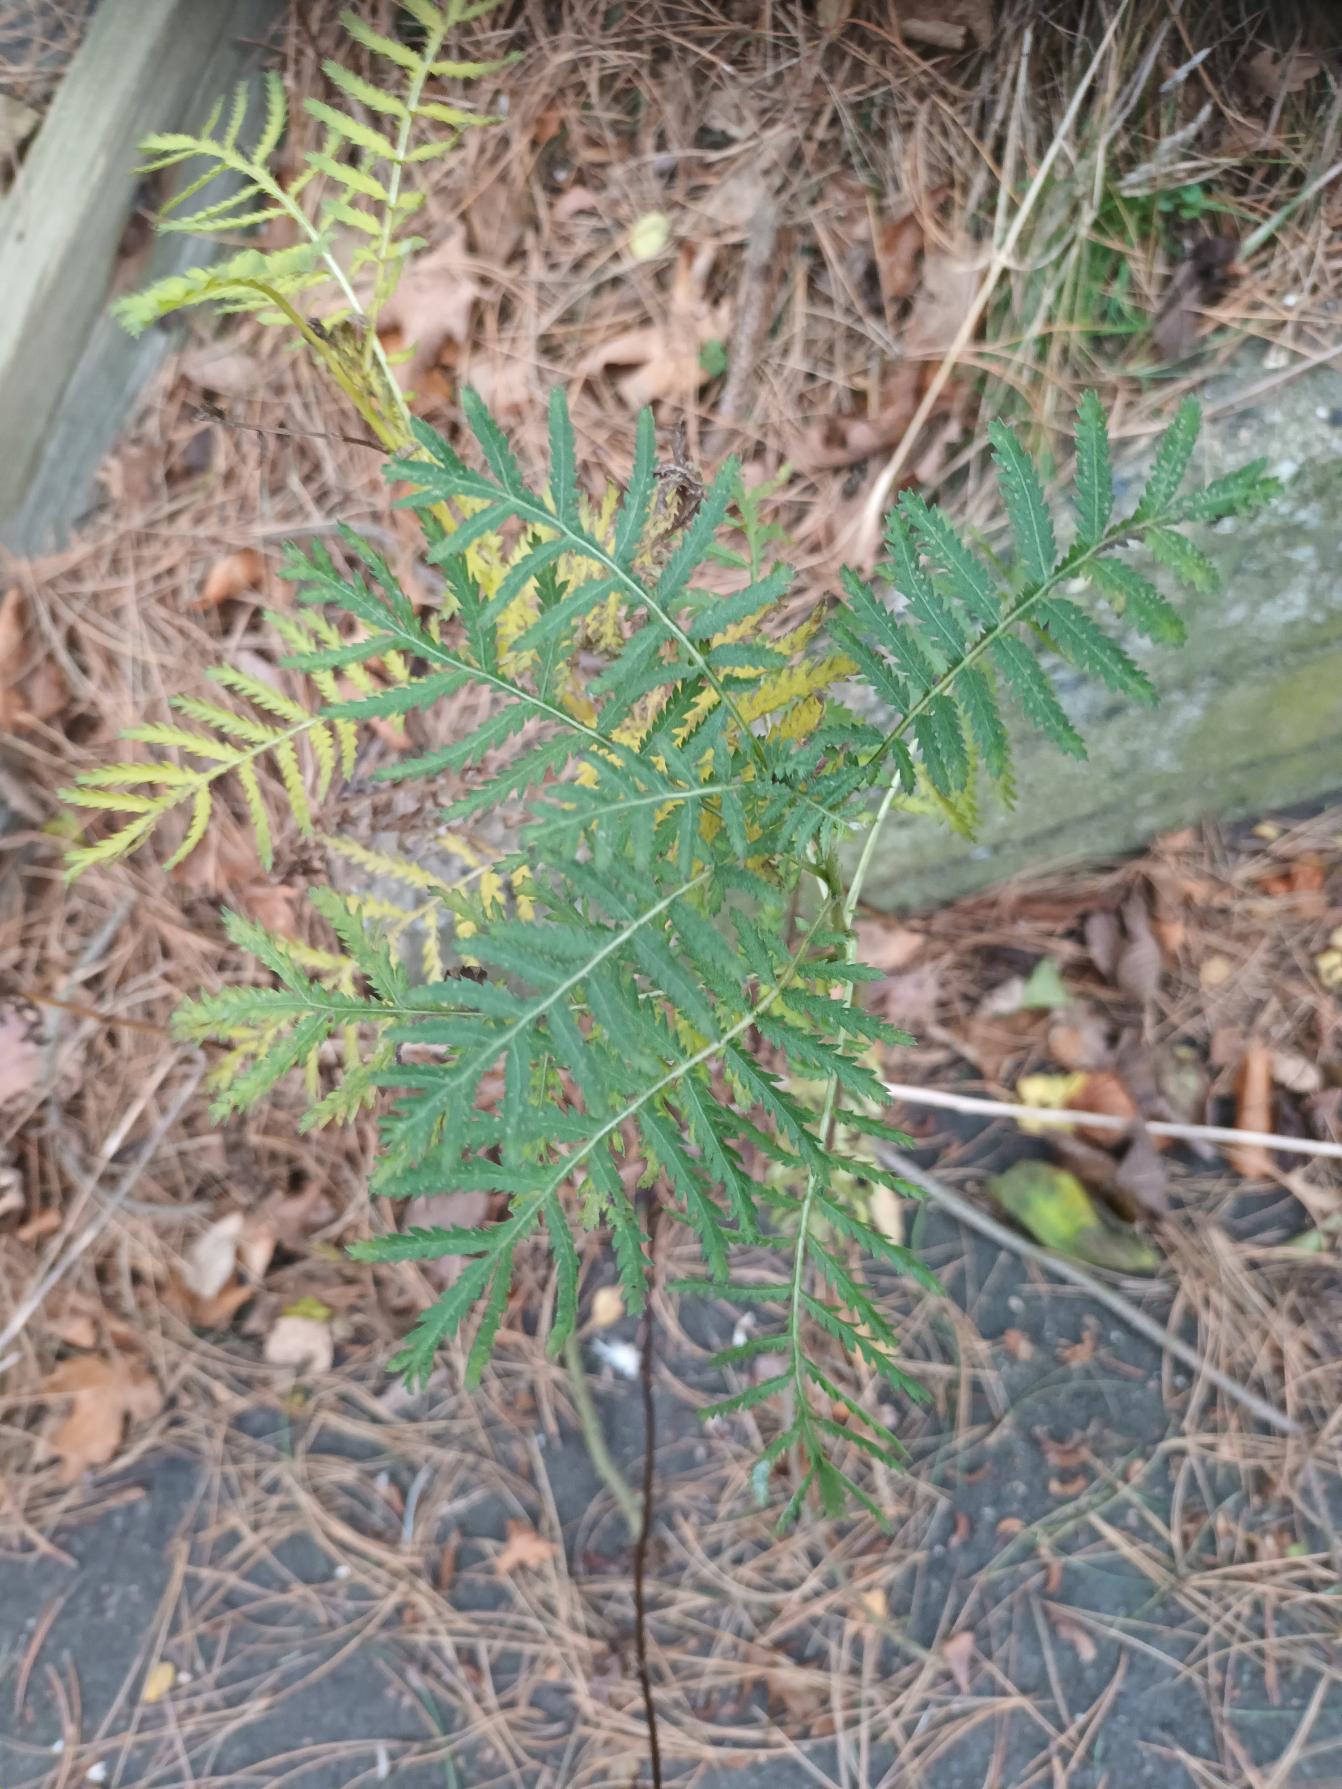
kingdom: Plantae
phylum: Tracheophyta
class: Magnoliopsida
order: Asterales
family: Asteraceae
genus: Tanacetum
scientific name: Tanacetum vulgare
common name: Rejnfan
